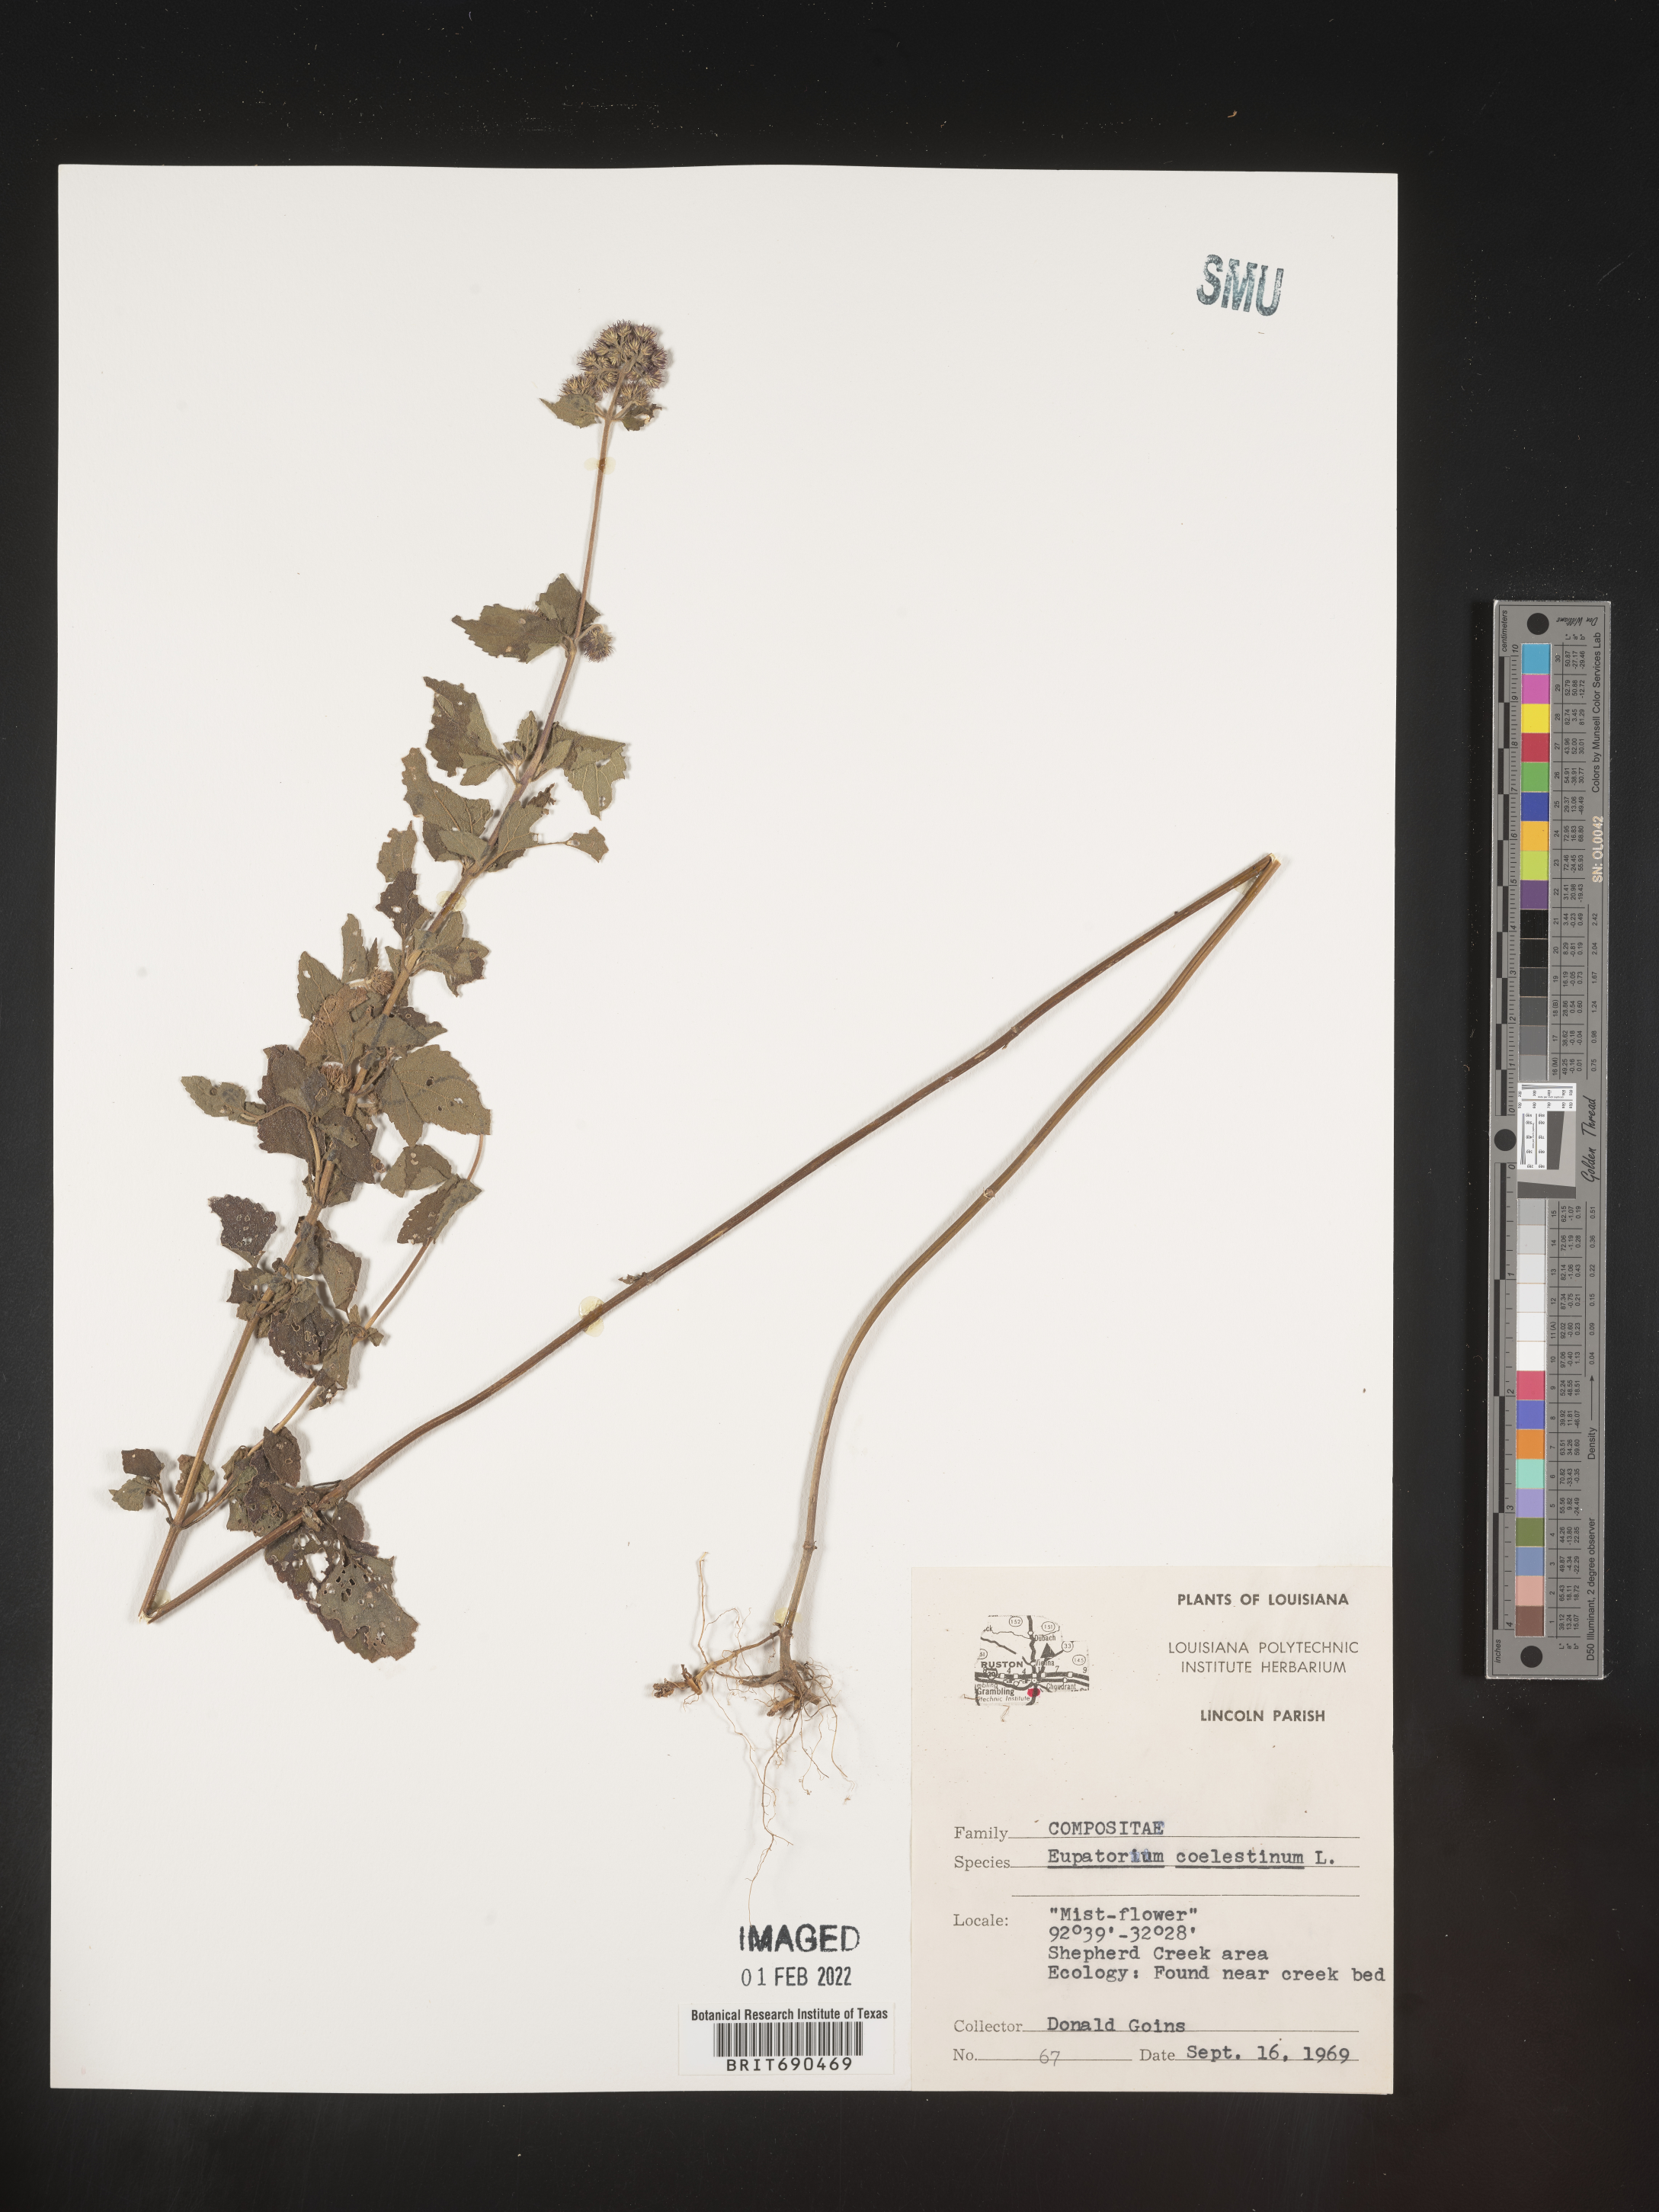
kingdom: Plantae
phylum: Tracheophyta
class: Magnoliopsida
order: Asterales
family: Asteraceae
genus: Conoclinium
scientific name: Conoclinium coelestinum
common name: Blue mistflower
